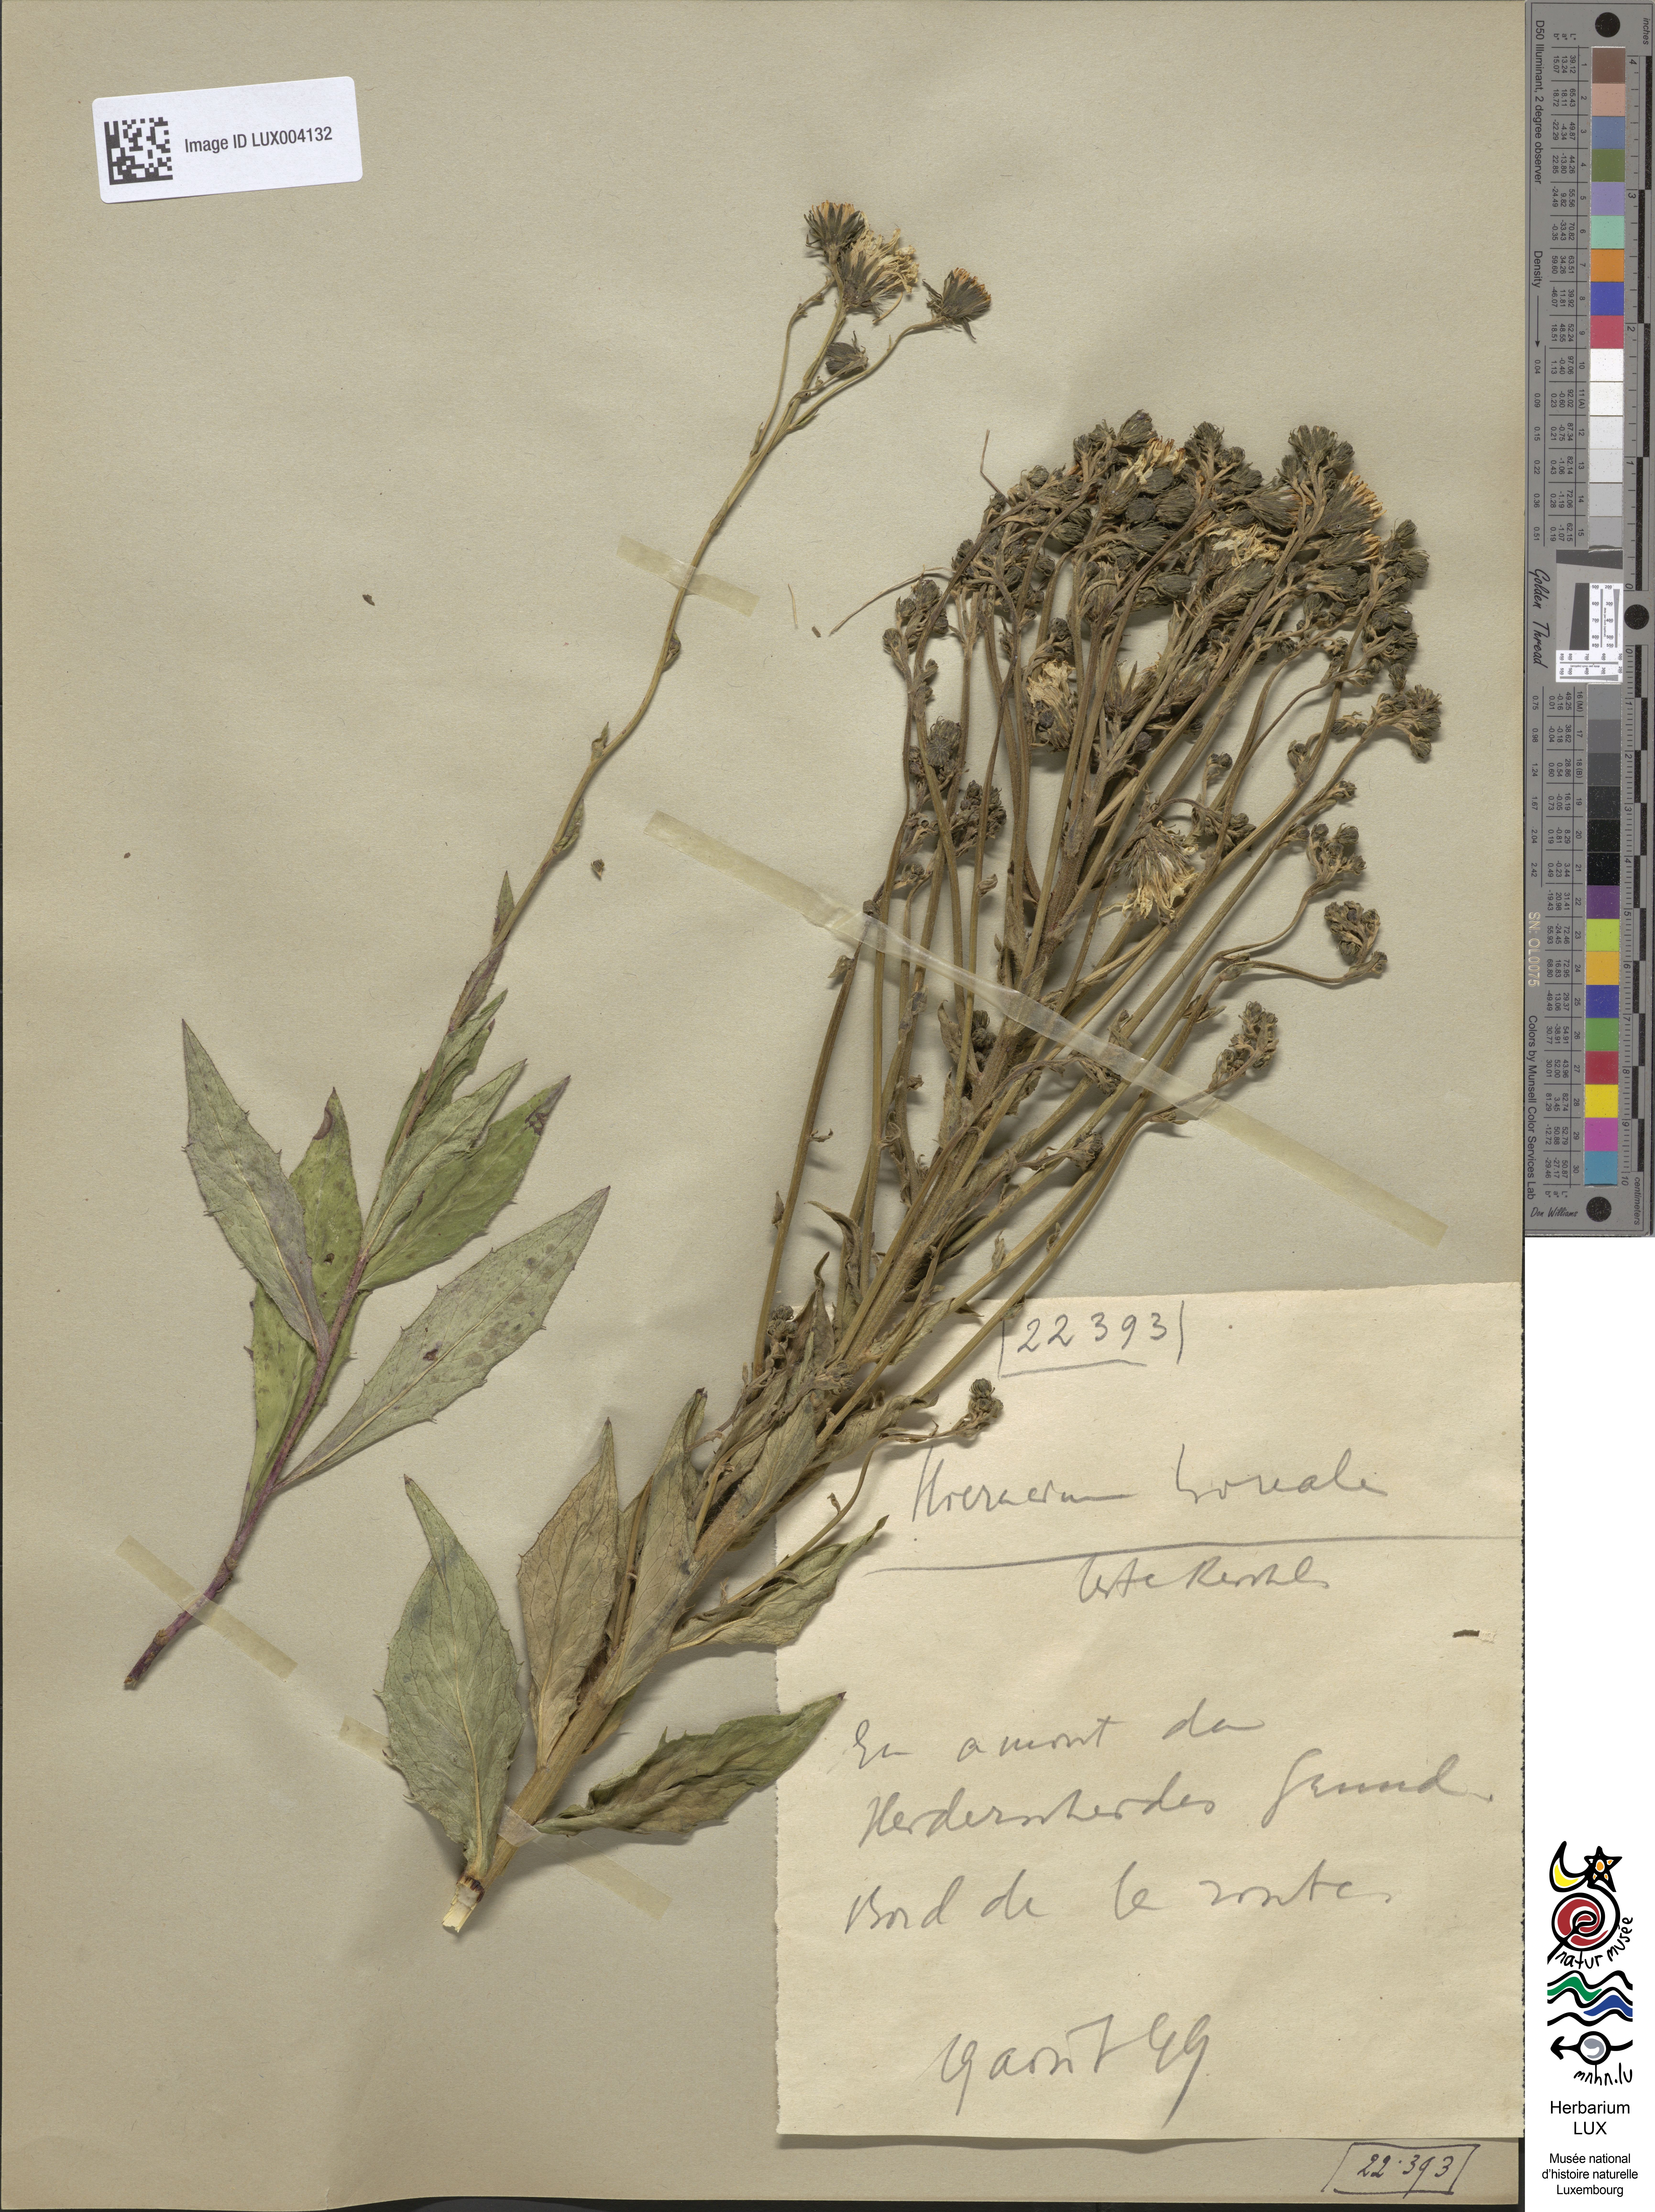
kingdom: Plantae
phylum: Tracheophyta
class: Magnoliopsida
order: Asterales
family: Asteraceae
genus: Hieracium
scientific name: Hieracium sabaudum
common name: New england hawkweed
